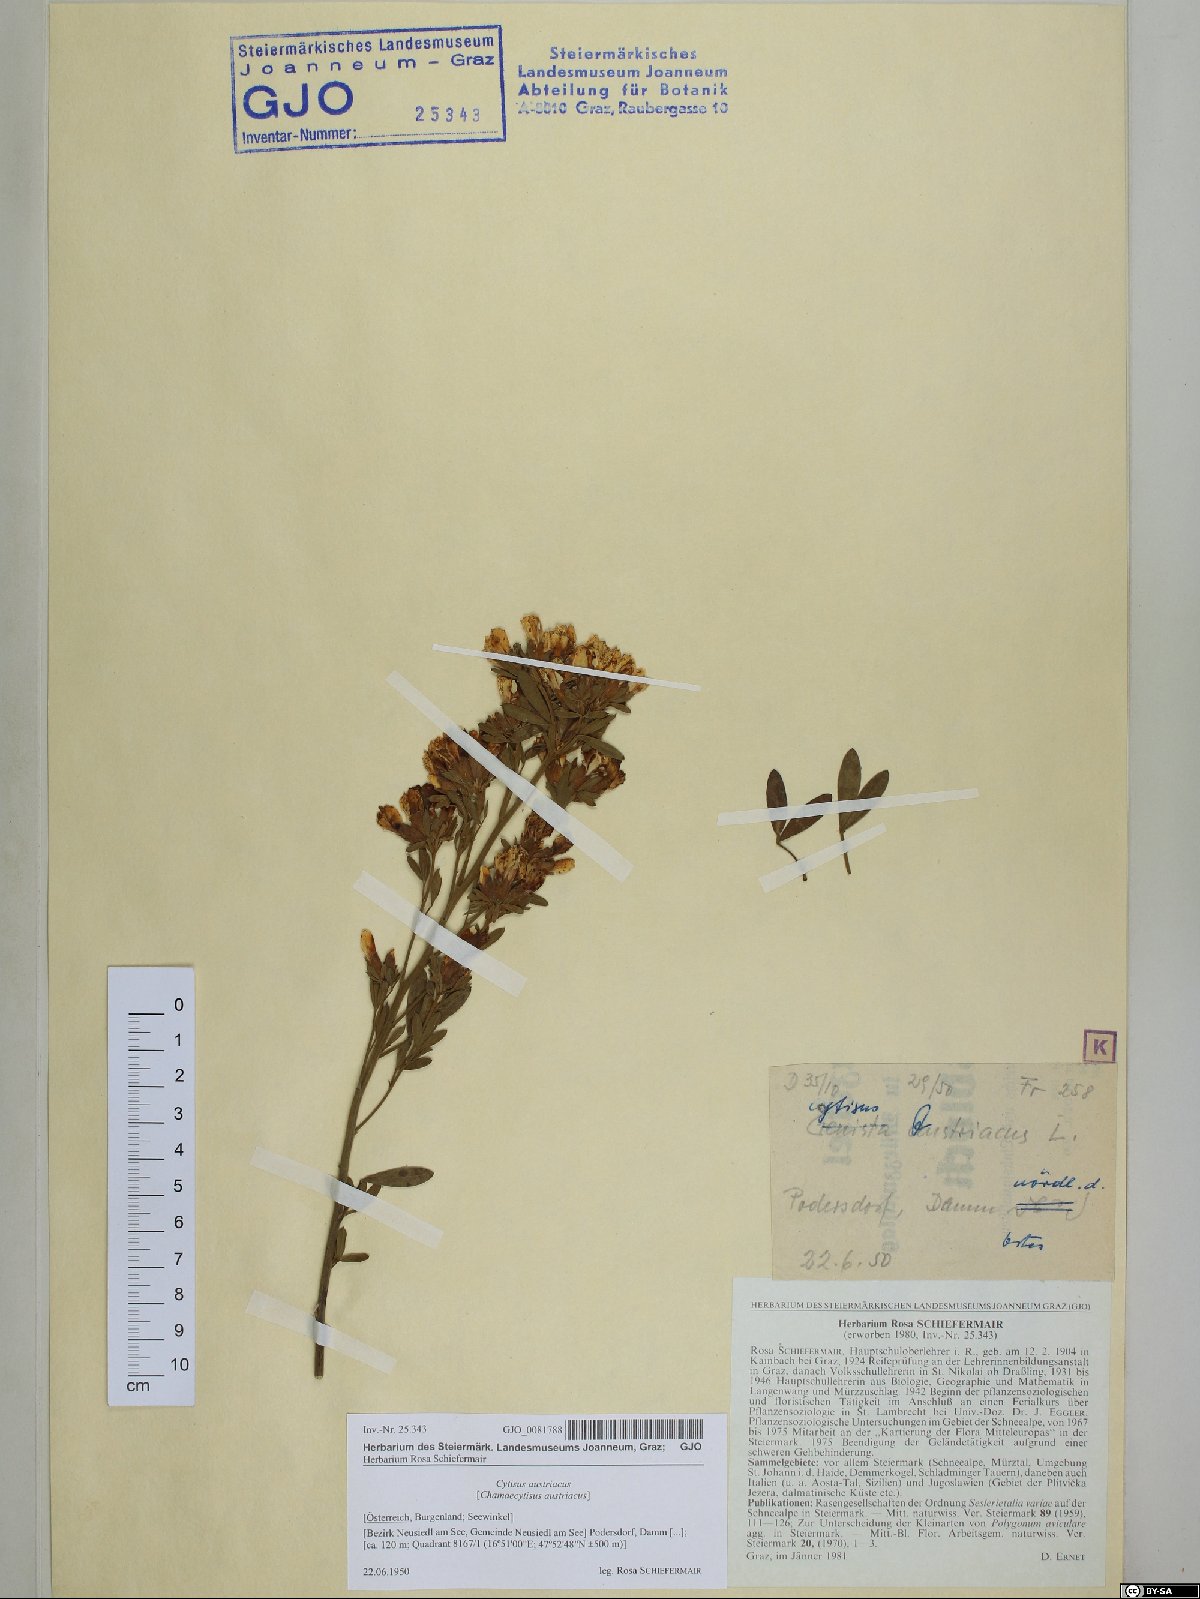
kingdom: Plantae
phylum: Tracheophyta
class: Magnoliopsida
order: Fabales
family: Fabaceae
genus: Chamaecytisus
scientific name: Chamaecytisus austriacus
